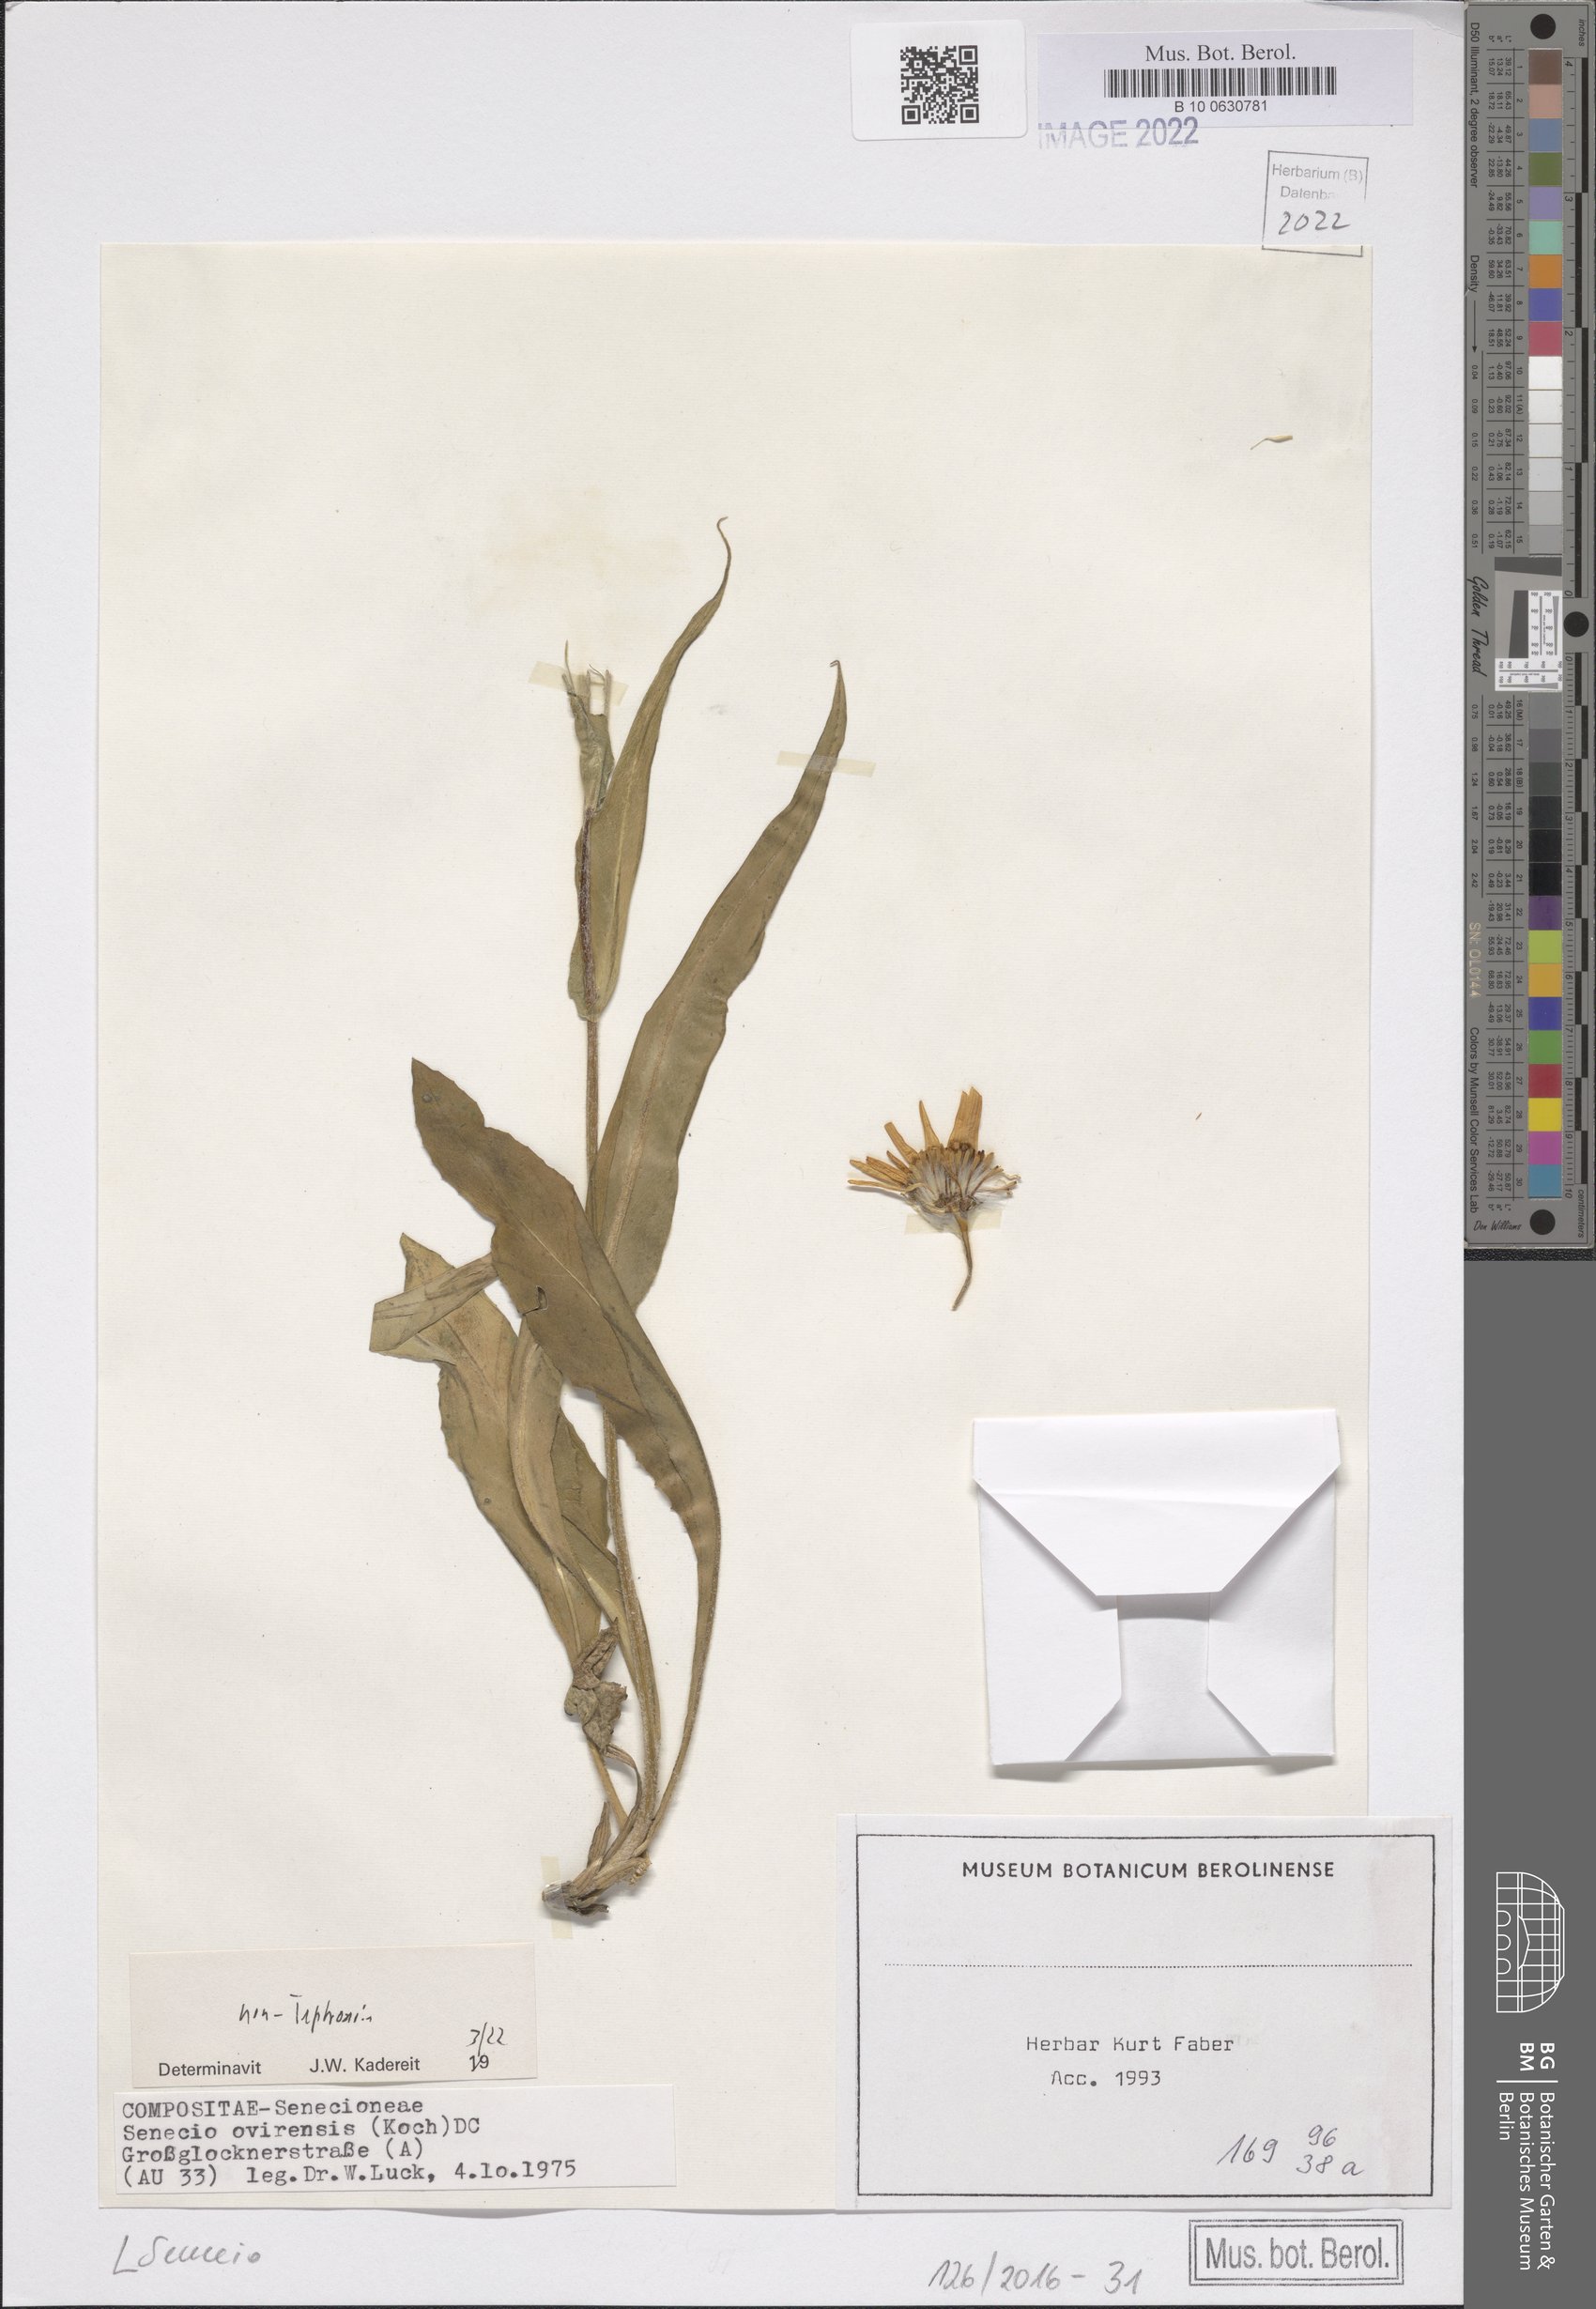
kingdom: Plantae
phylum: Tracheophyta
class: Magnoliopsida
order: Asterales
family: Asteraceae
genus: Senecio
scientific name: Senecio
